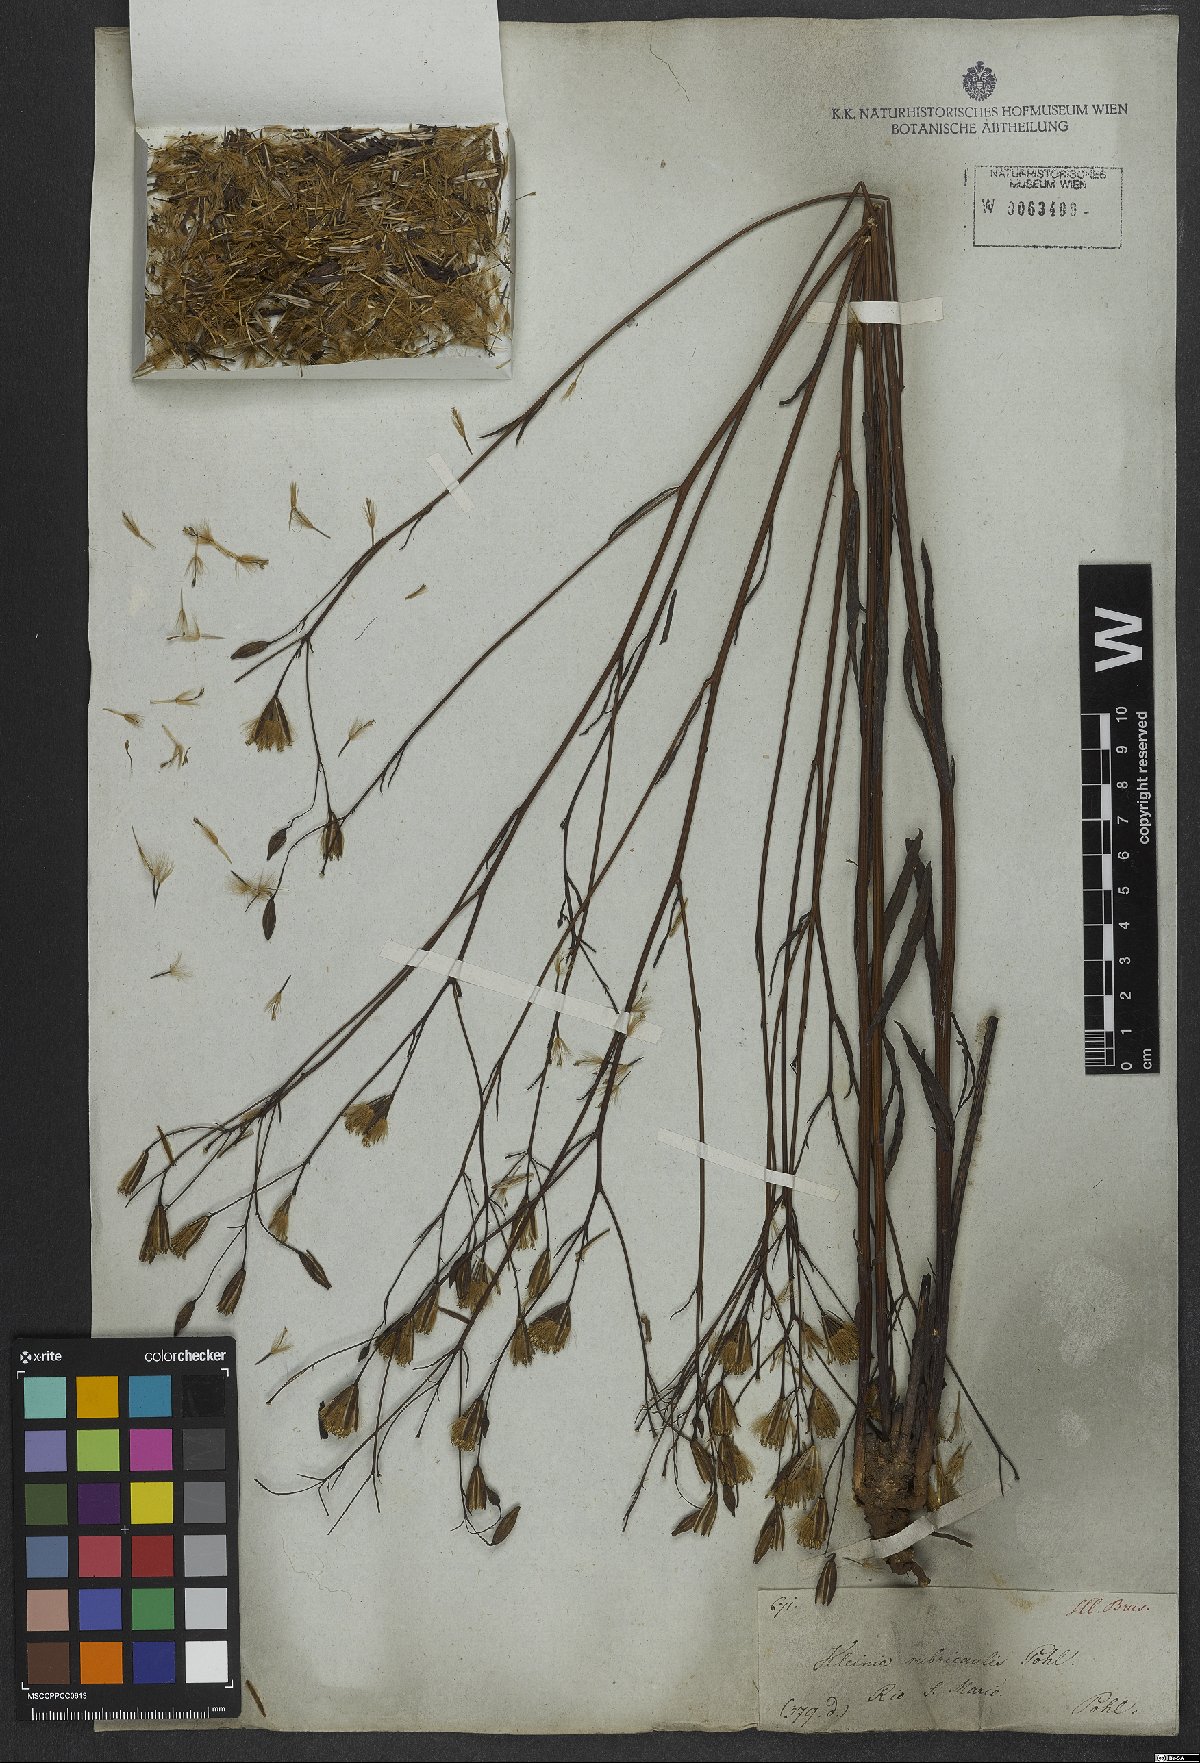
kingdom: Plantae
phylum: Tracheophyta
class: Magnoliopsida
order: Asterales
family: Asteraceae
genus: Porophyllum
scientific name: Porophyllum obscurum
